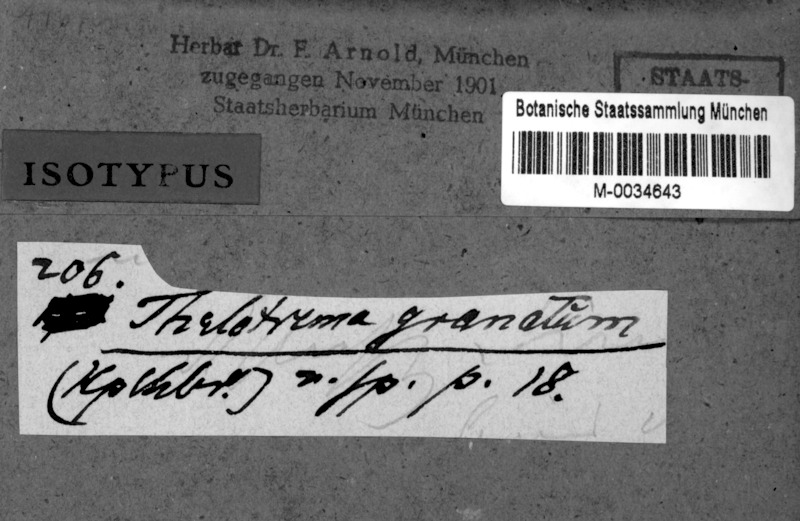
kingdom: Fungi
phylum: Ascomycota
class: Lecanoromycetes
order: Ostropales
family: Graphidaceae
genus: Thelotrema
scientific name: Thelotrema granatum
